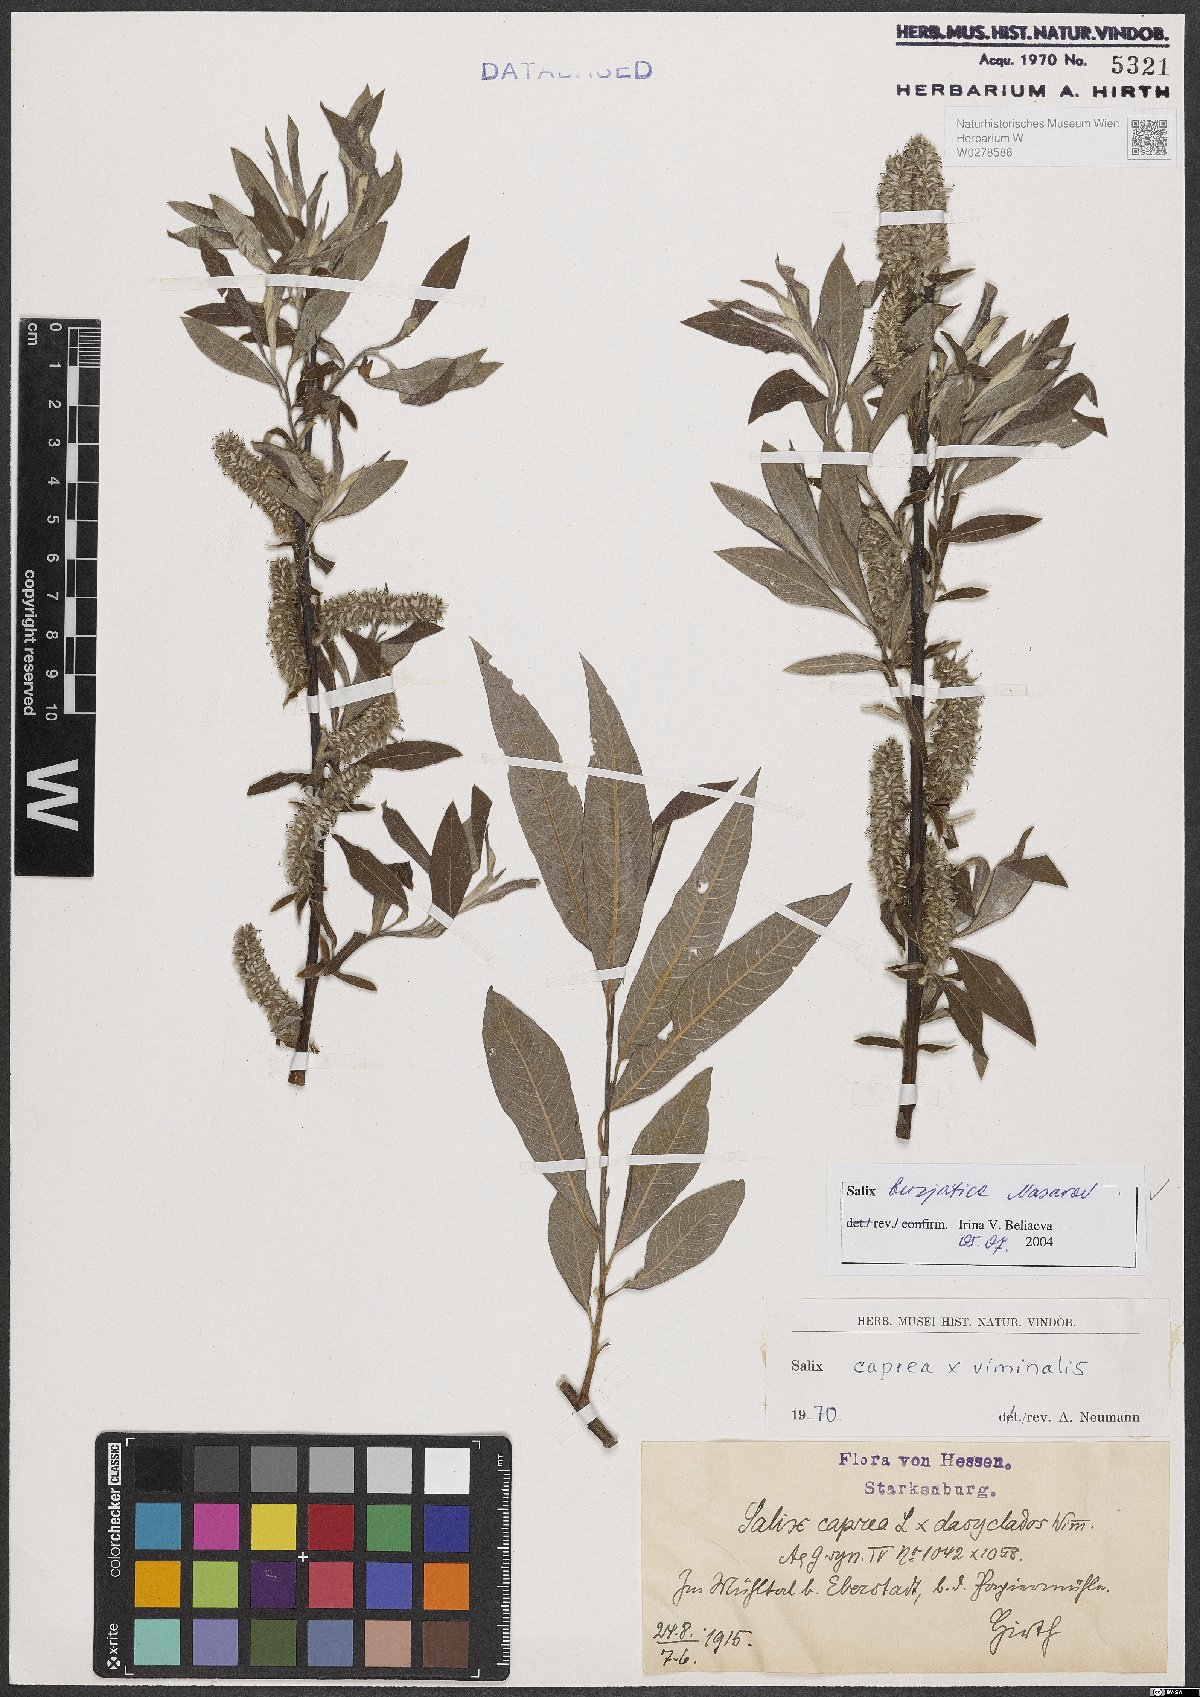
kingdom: Plantae
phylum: Tracheophyta
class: Magnoliopsida
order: Malpighiales
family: Salicaceae
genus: Salix
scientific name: Salix gmelinii
